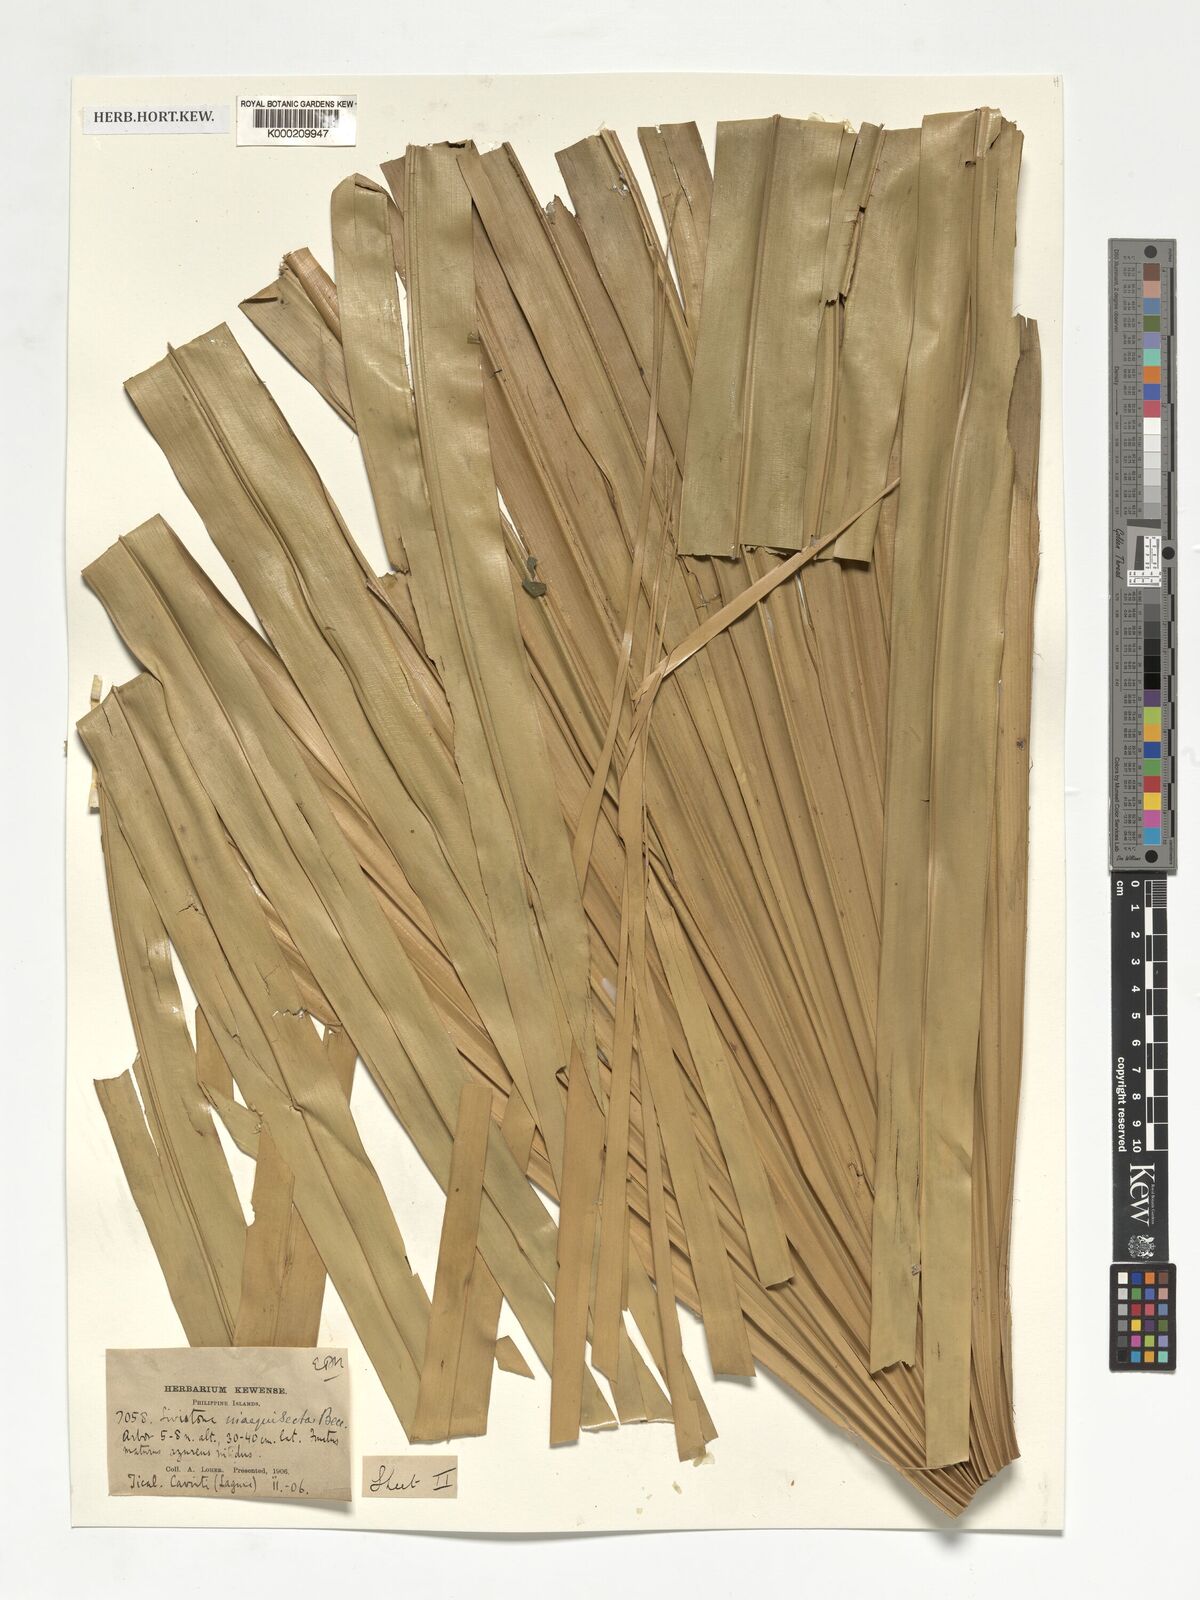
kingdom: Plantae
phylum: Tracheophyta
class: Liliopsida
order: Arecales
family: Arecaceae
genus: Livistona
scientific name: Livistona saribus
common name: Taraw palm
